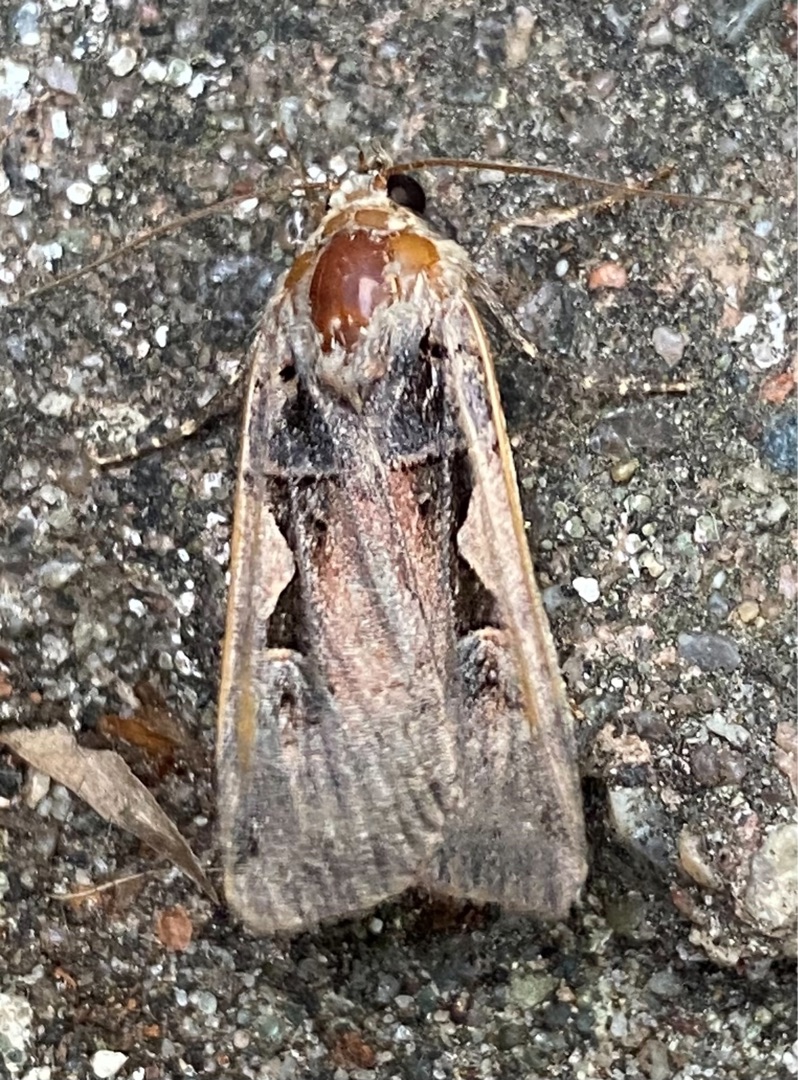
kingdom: Animalia
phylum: Arthropoda
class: Insecta
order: Lepidoptera
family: Noctuidae
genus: Xestia
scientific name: Xestia c-nigrum
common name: Det sorte c
